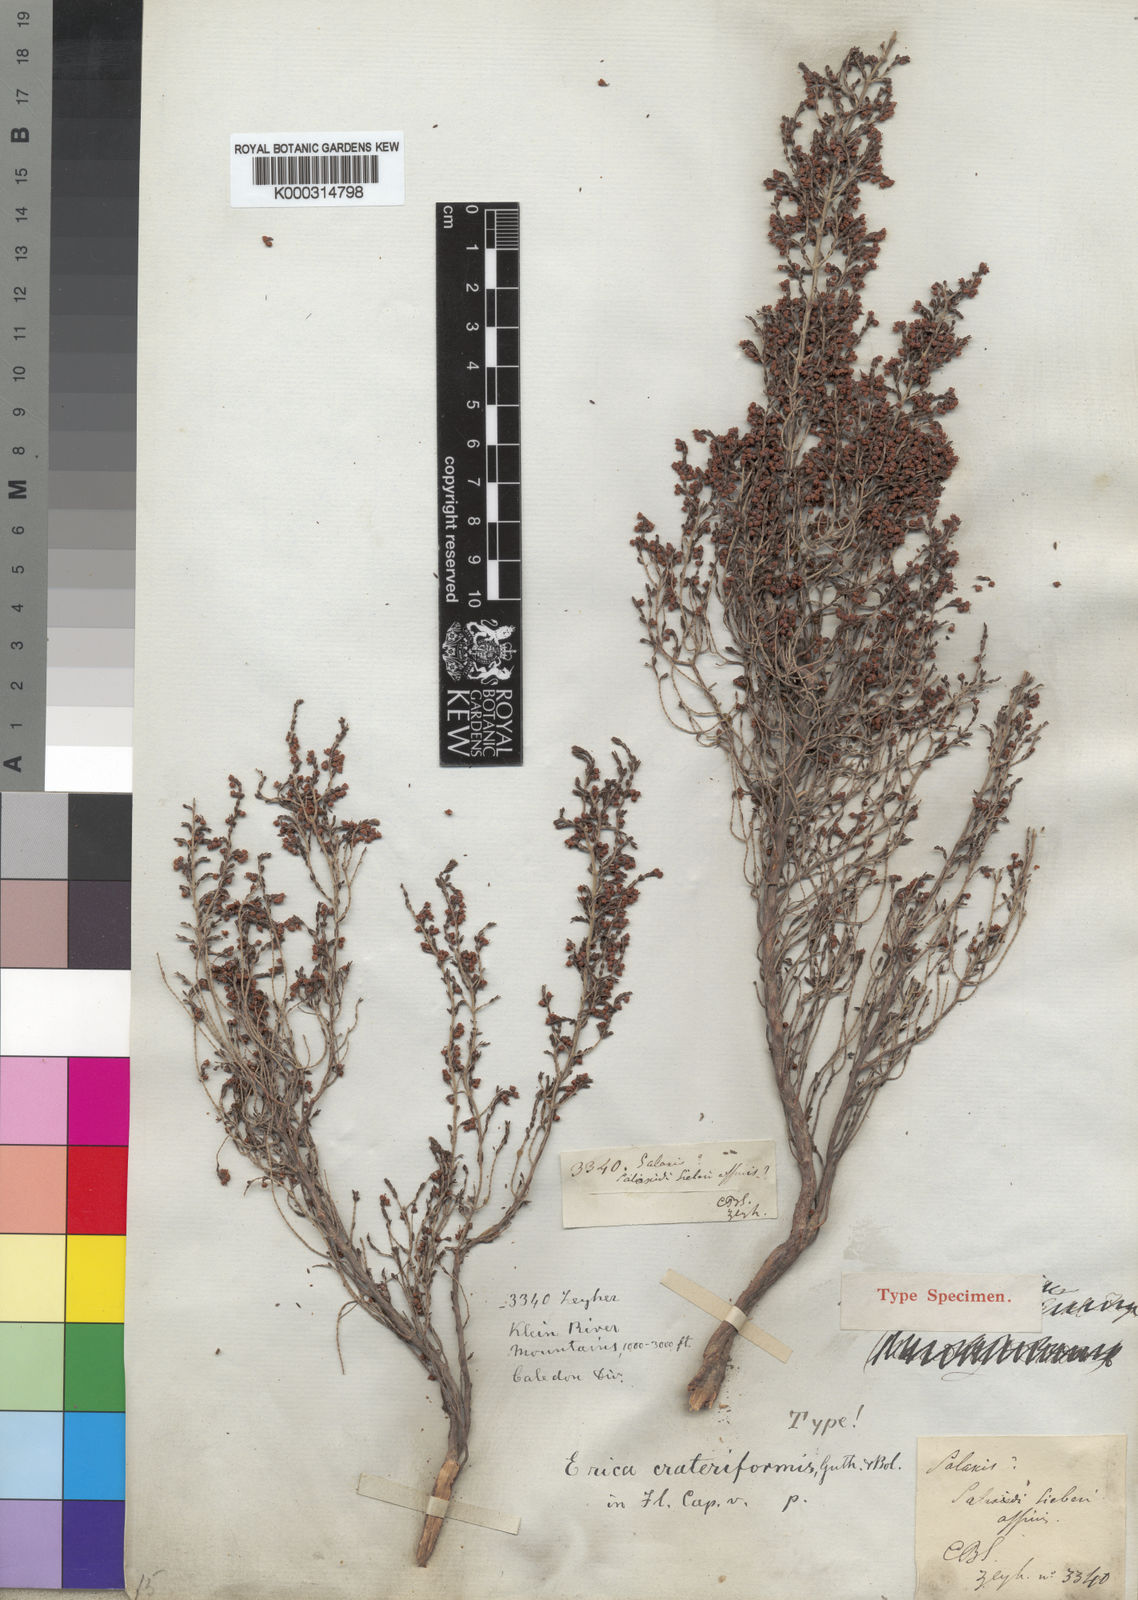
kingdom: Plantae
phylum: Tracheophyta
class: Magnoliopsida
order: Ericales
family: Ericaceae
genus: Erica
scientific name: Erica crateriformis
